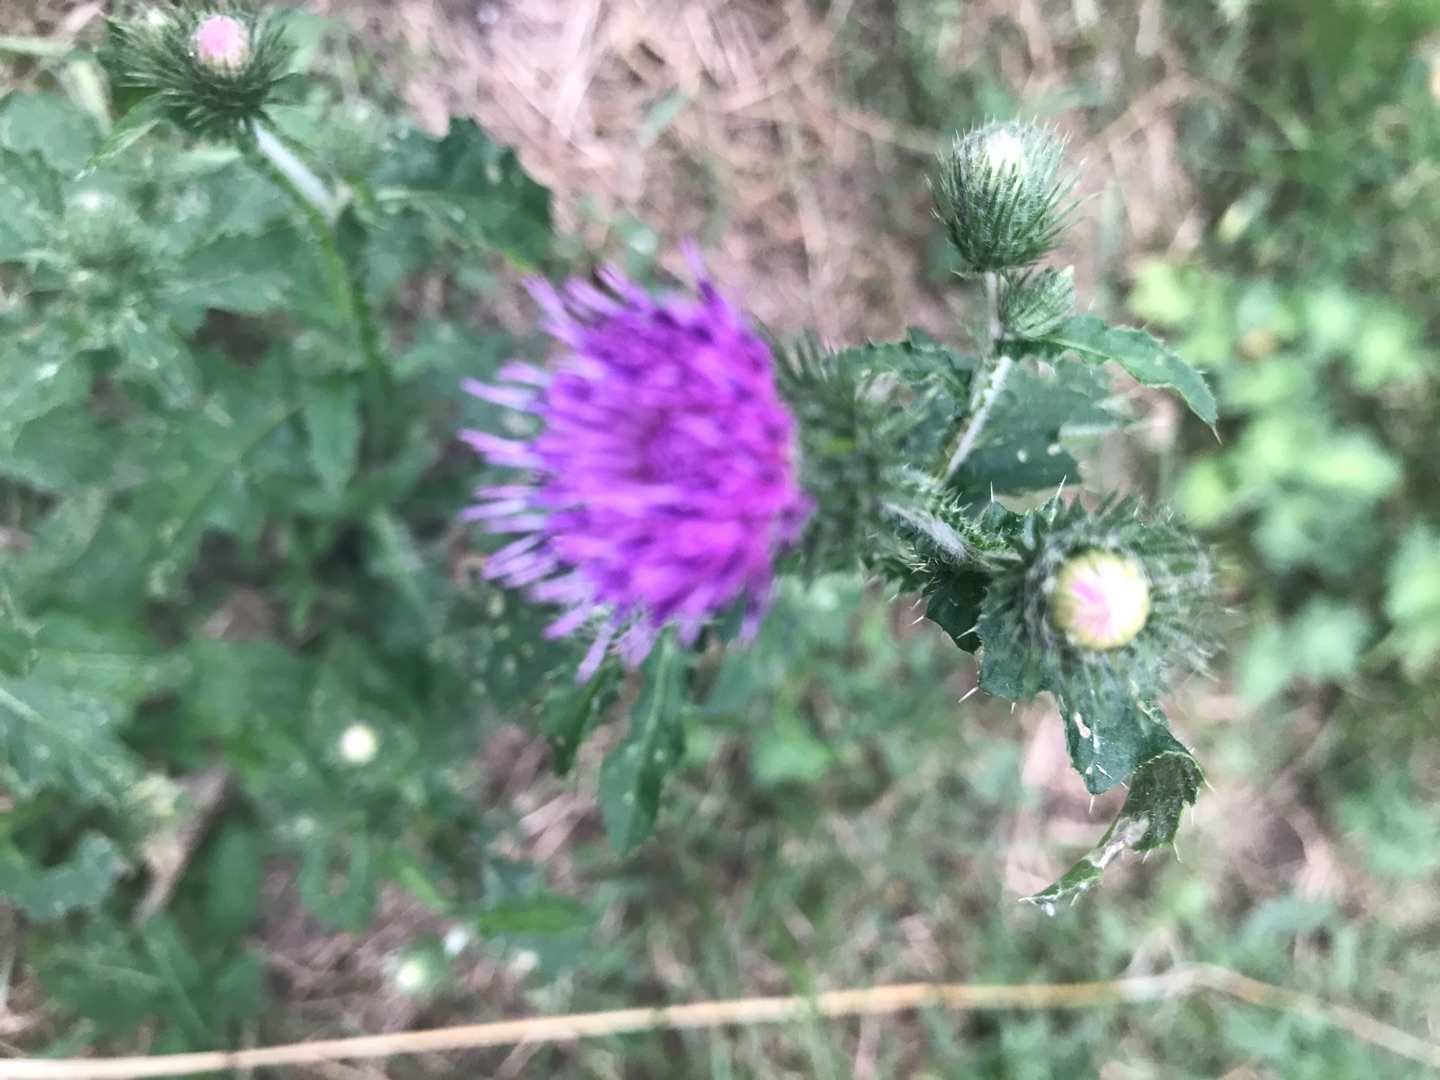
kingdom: Plantae
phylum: Tracheophyta
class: Magnoliopsida
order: Asterales
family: Asteraceae
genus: Carduus
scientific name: Carduus crispus
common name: Kruset tidsel
